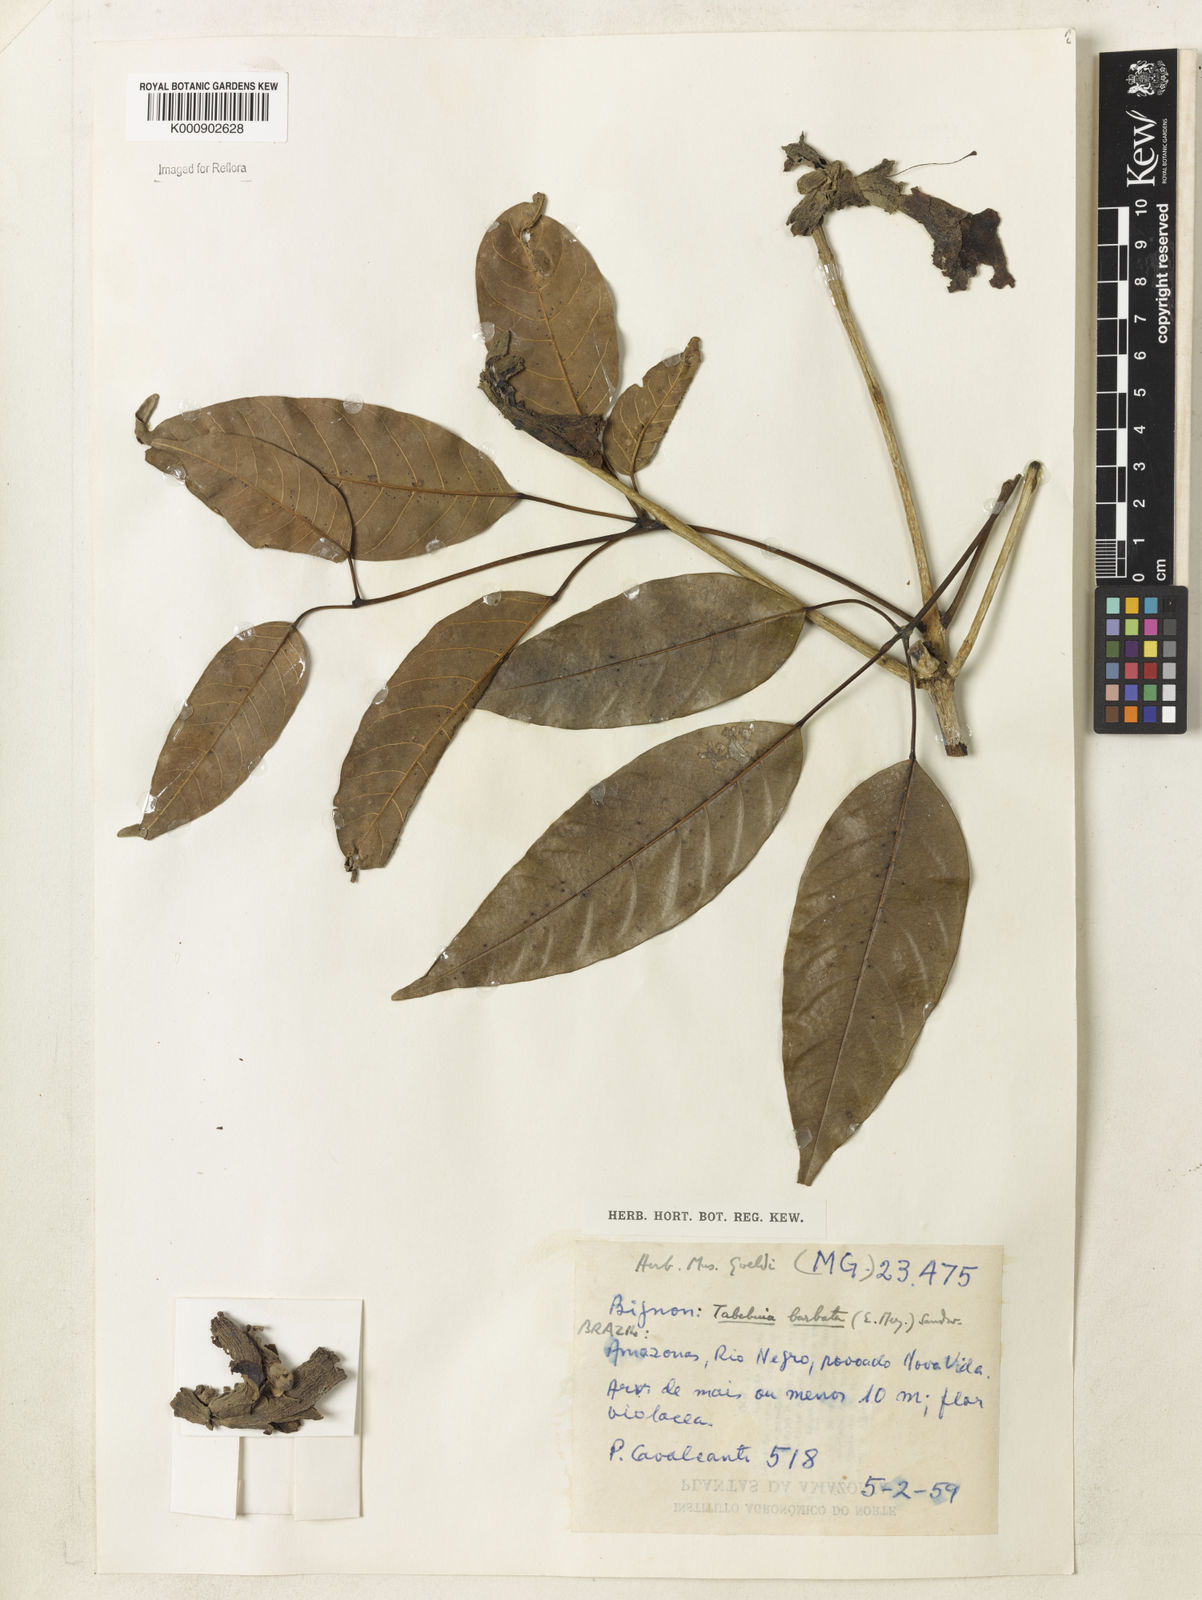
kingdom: Plantae
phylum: Tracheophyta
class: Magnoliopsida
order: Lamiales
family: Bignoniaceae
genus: Handroanthus
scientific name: Handroanthus barbatus
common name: Trumpet trees
